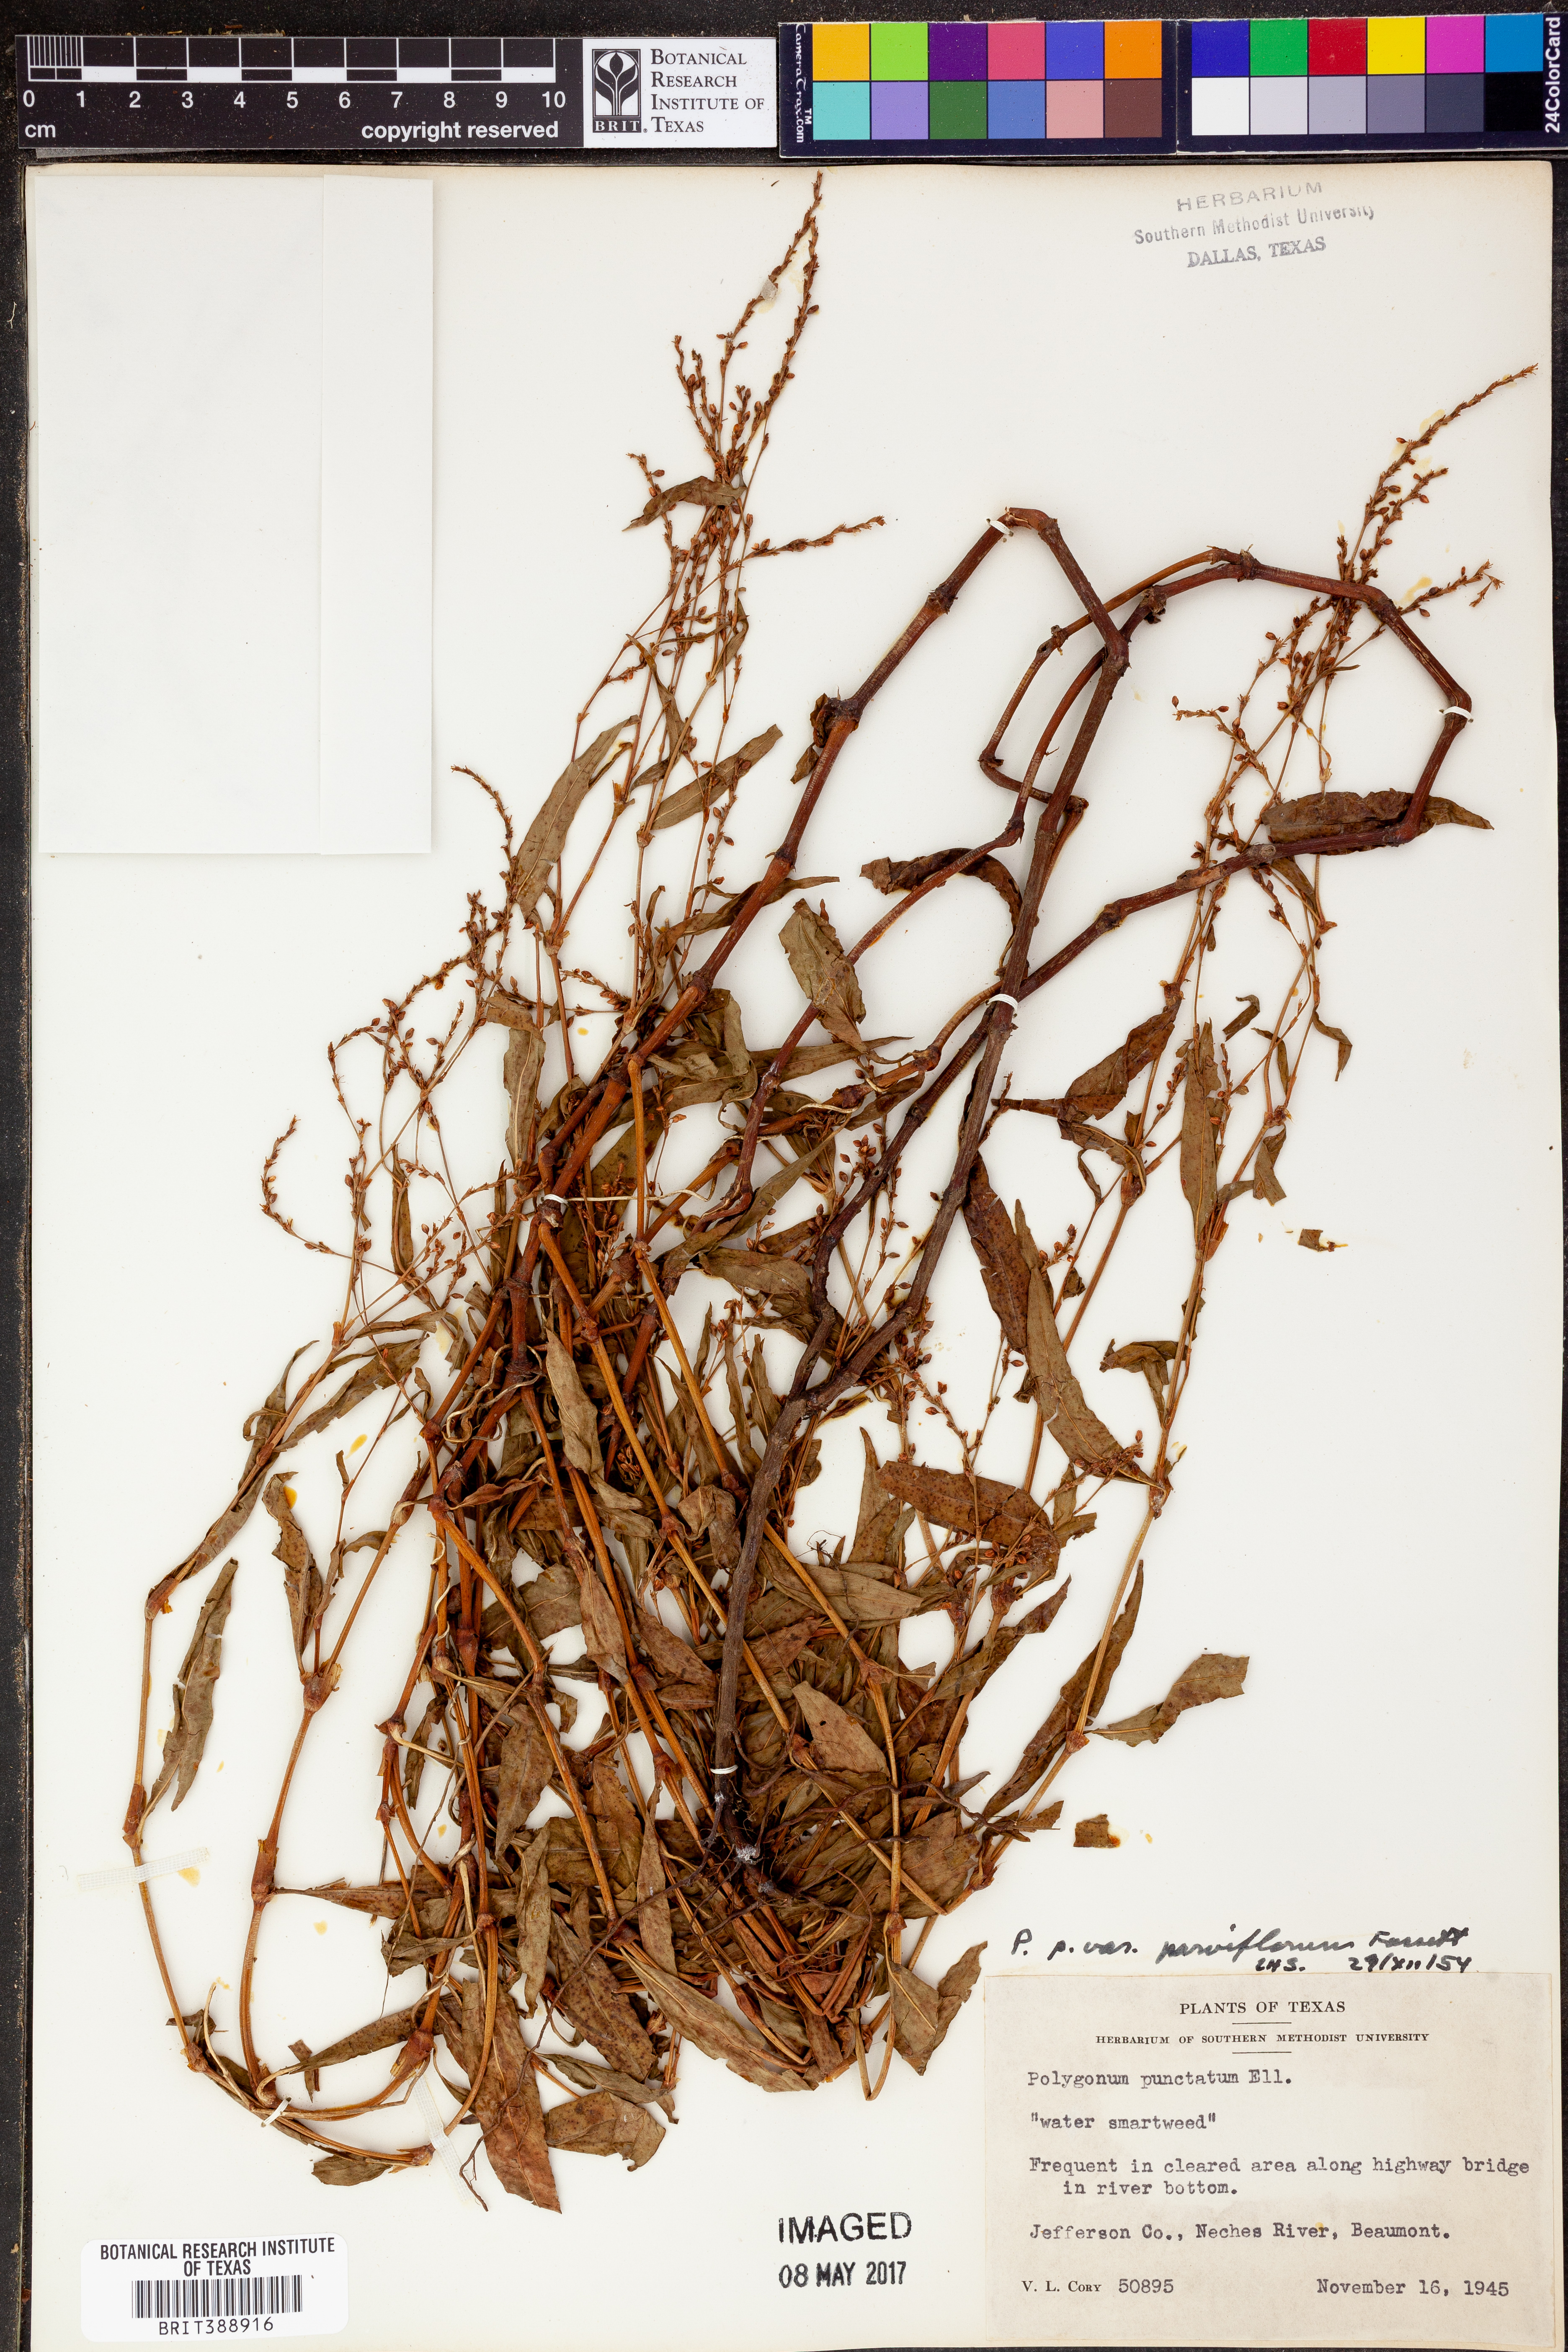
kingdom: Plantae
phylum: Tracheophyta
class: Magnoliopsida
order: Caryophyllales
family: Polygonaceae
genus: Persicaria
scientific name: Persicaria punctata
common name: Dotted smartweed
